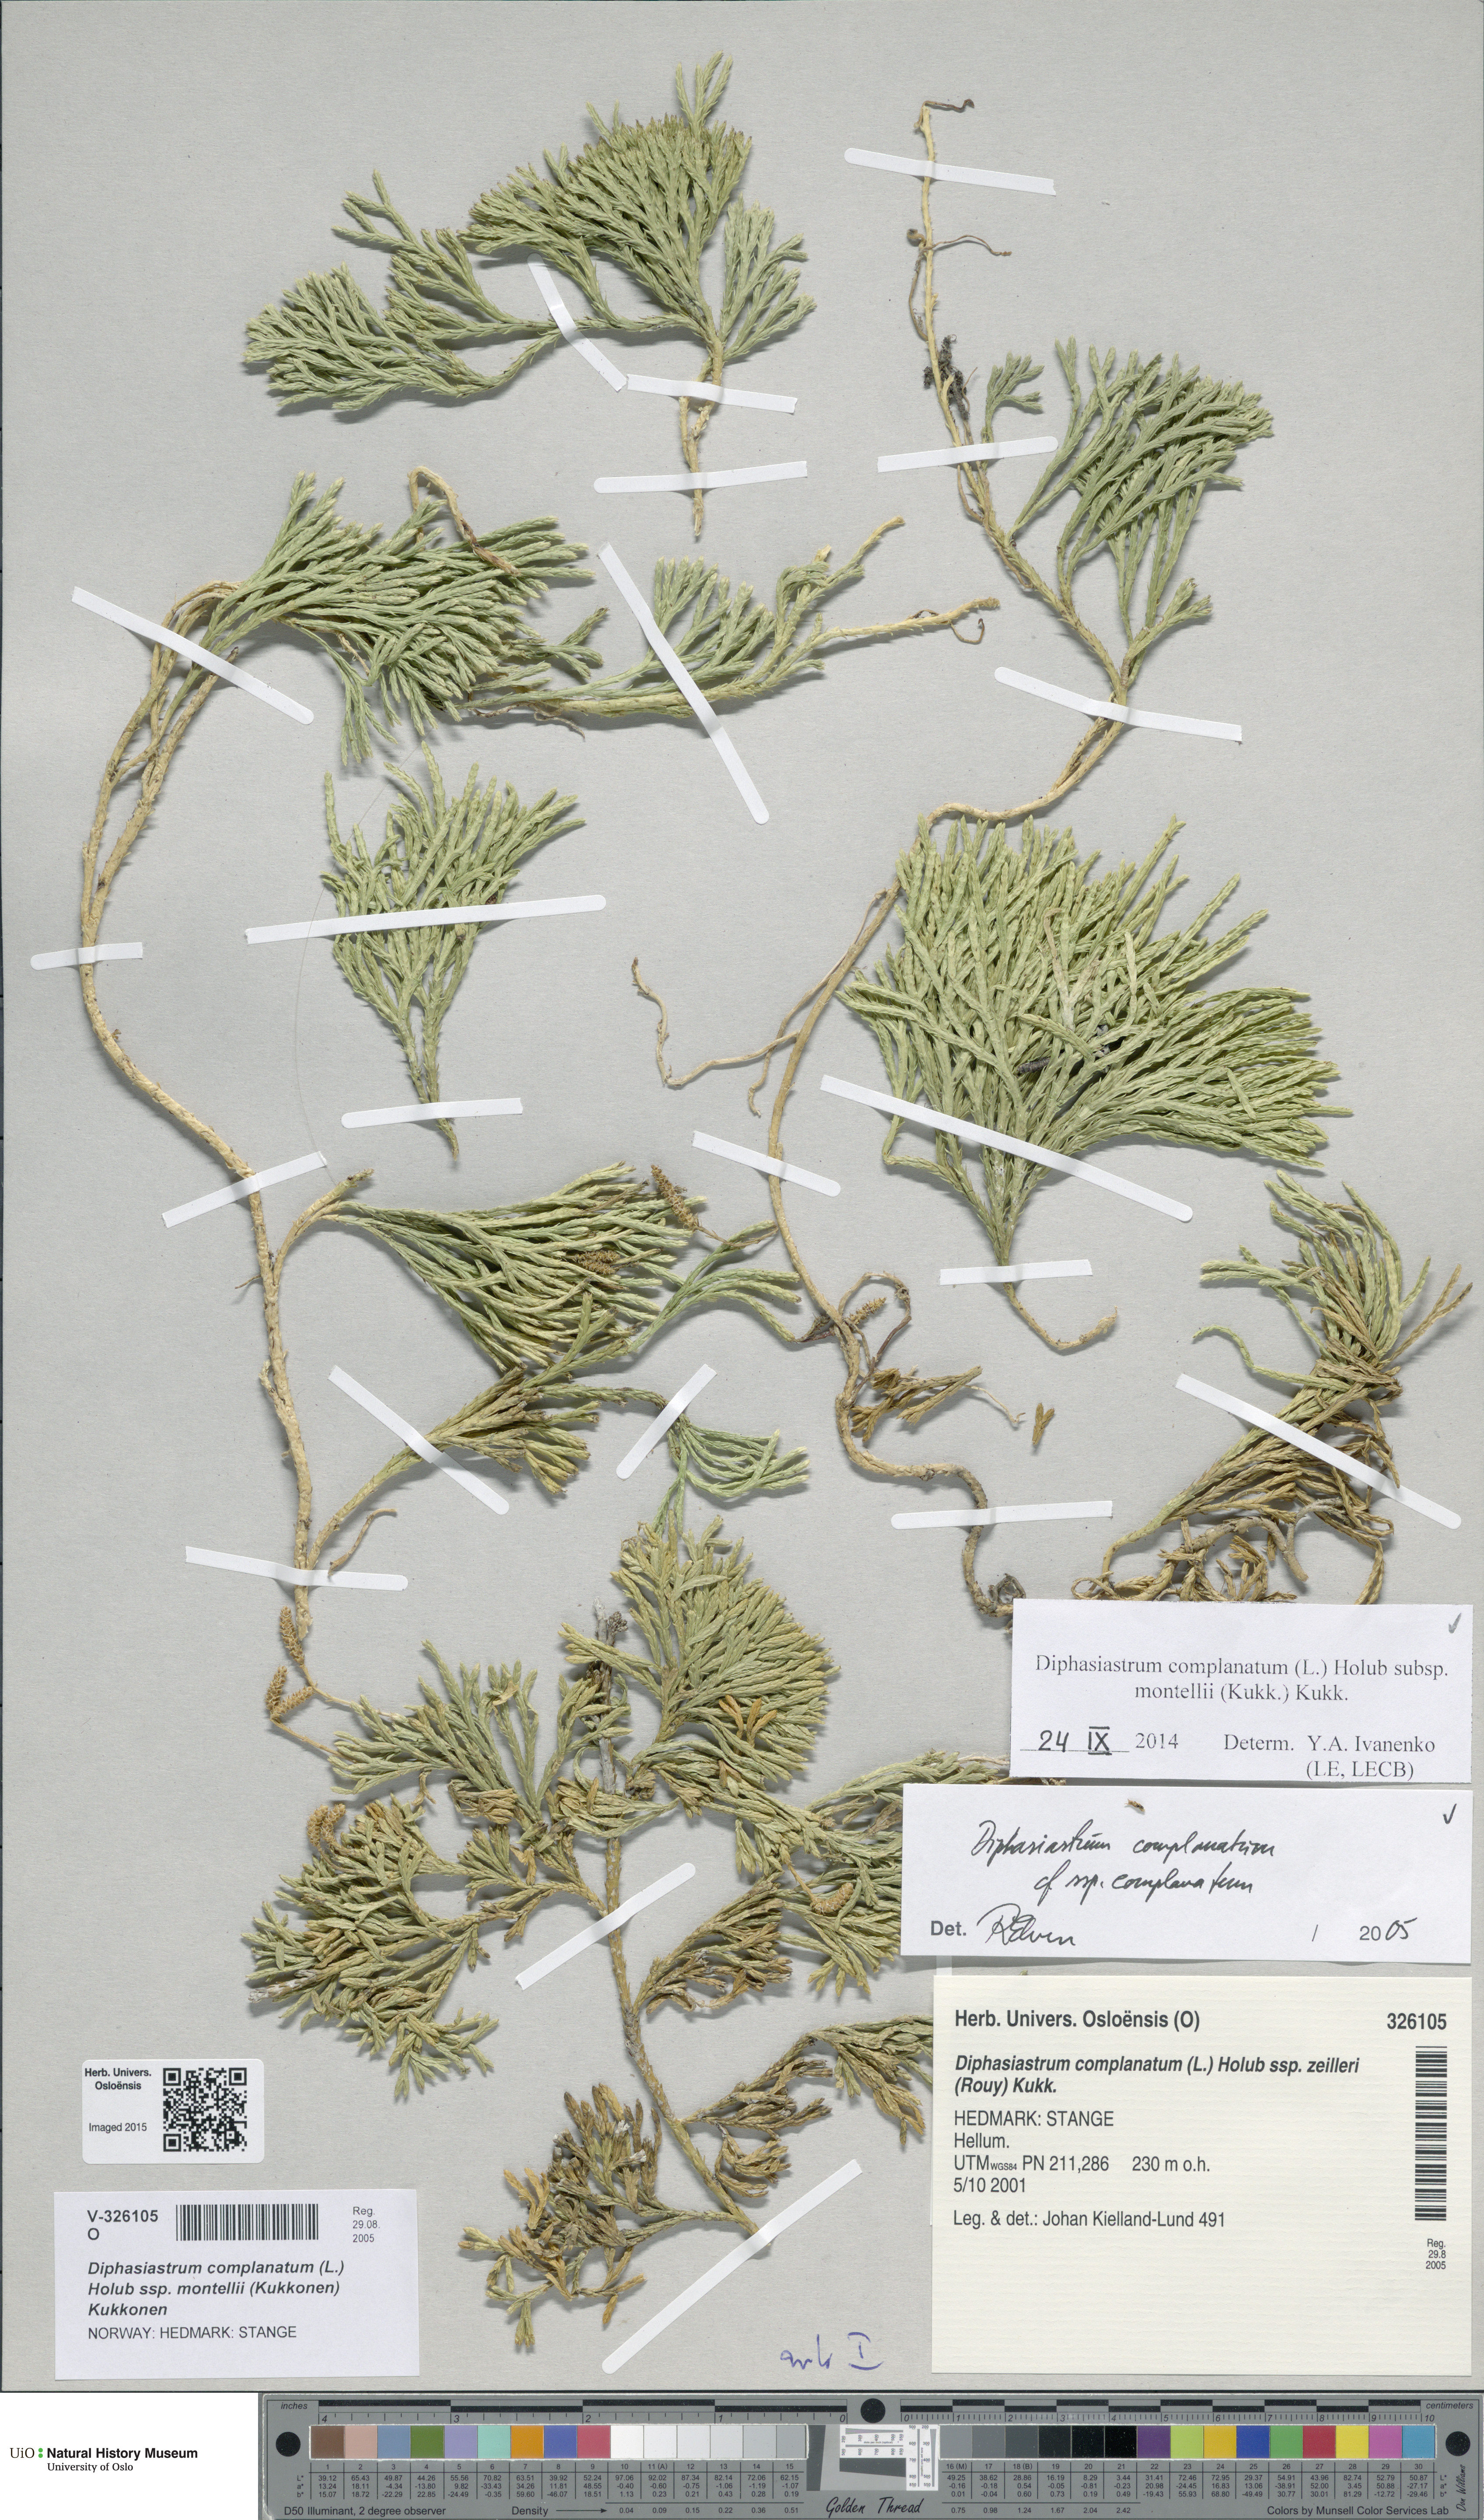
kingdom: Plantae
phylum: Tracheophyta
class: Lycopodiopsida
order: Lycopodiales
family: Lycopodiaceae
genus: Diphasiastrum
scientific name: Diphasiastrum complanatum
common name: Northern running-pine
